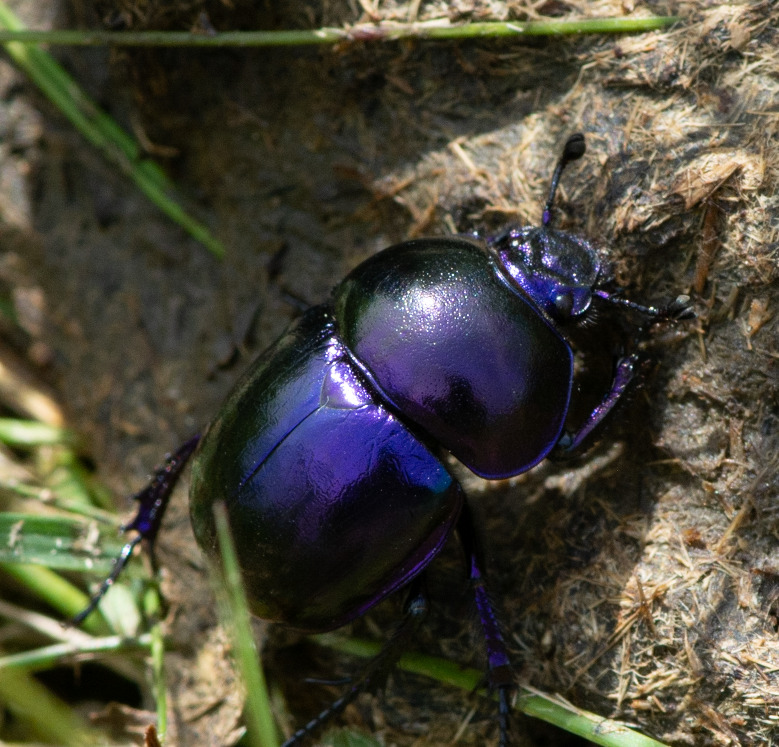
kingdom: Animalia
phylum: Arthropoda
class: Insecta
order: Coleoptera
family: Geotrupidae
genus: Trypocopris
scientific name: Trypocopris vernalis
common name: Glat skarnbasse
